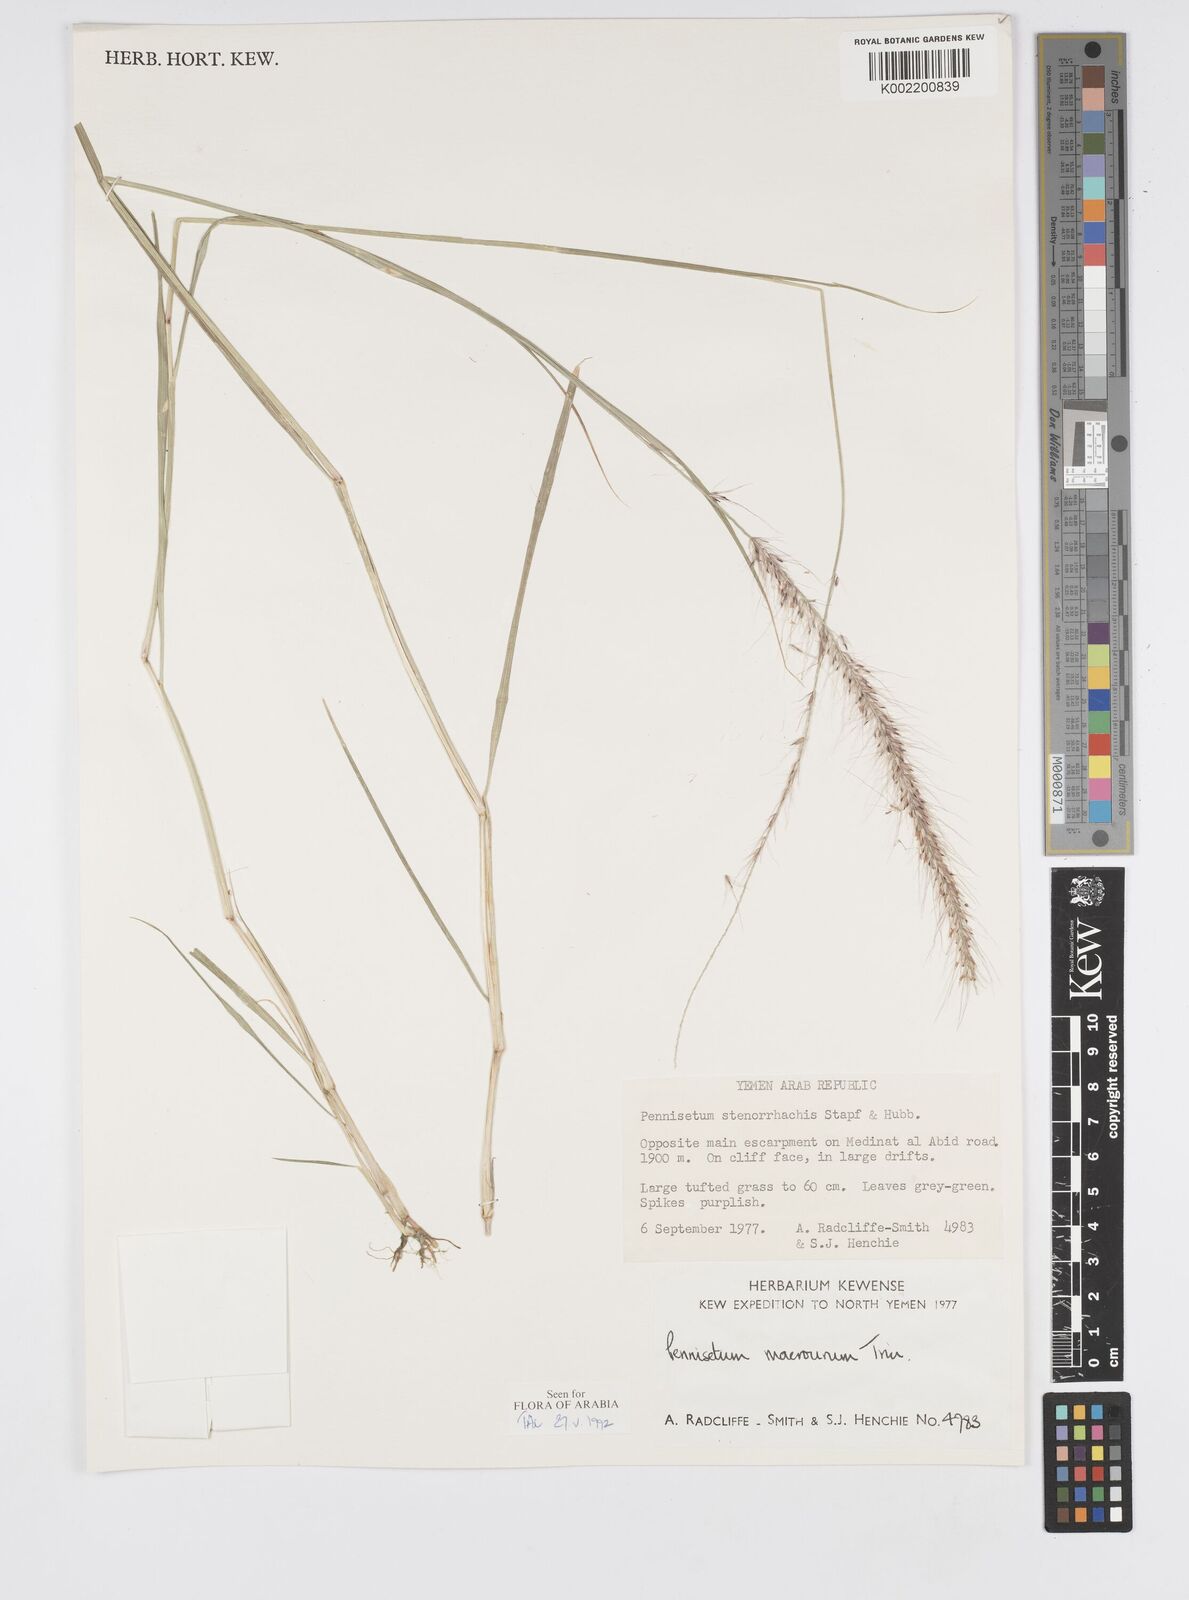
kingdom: Plantae
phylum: Tracheophyta
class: Liliopsida
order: Poales
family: Poaceae
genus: Cenchrus
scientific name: Cenchrus caudatus
